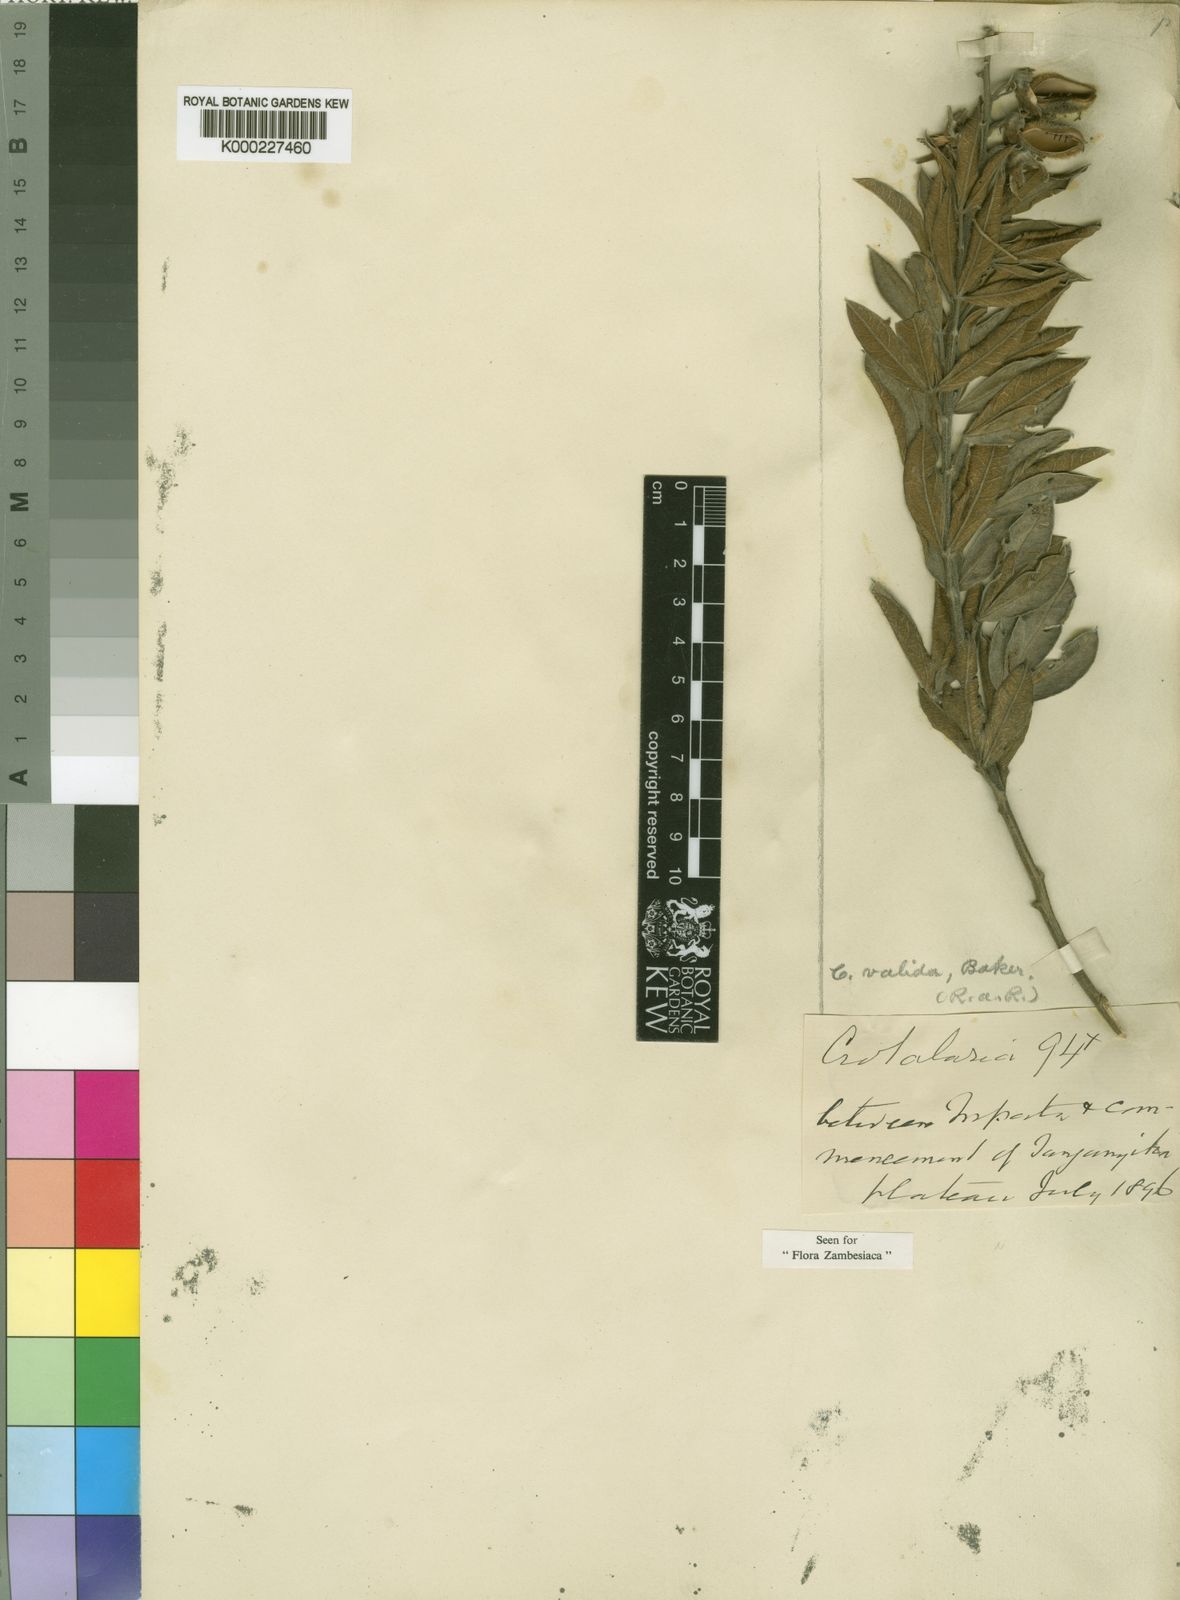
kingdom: Plantae
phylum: Tracheophyta
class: Magnoliopsida
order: Fabales
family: Fabaceae
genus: Crotalaria
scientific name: Crotalaria valida
